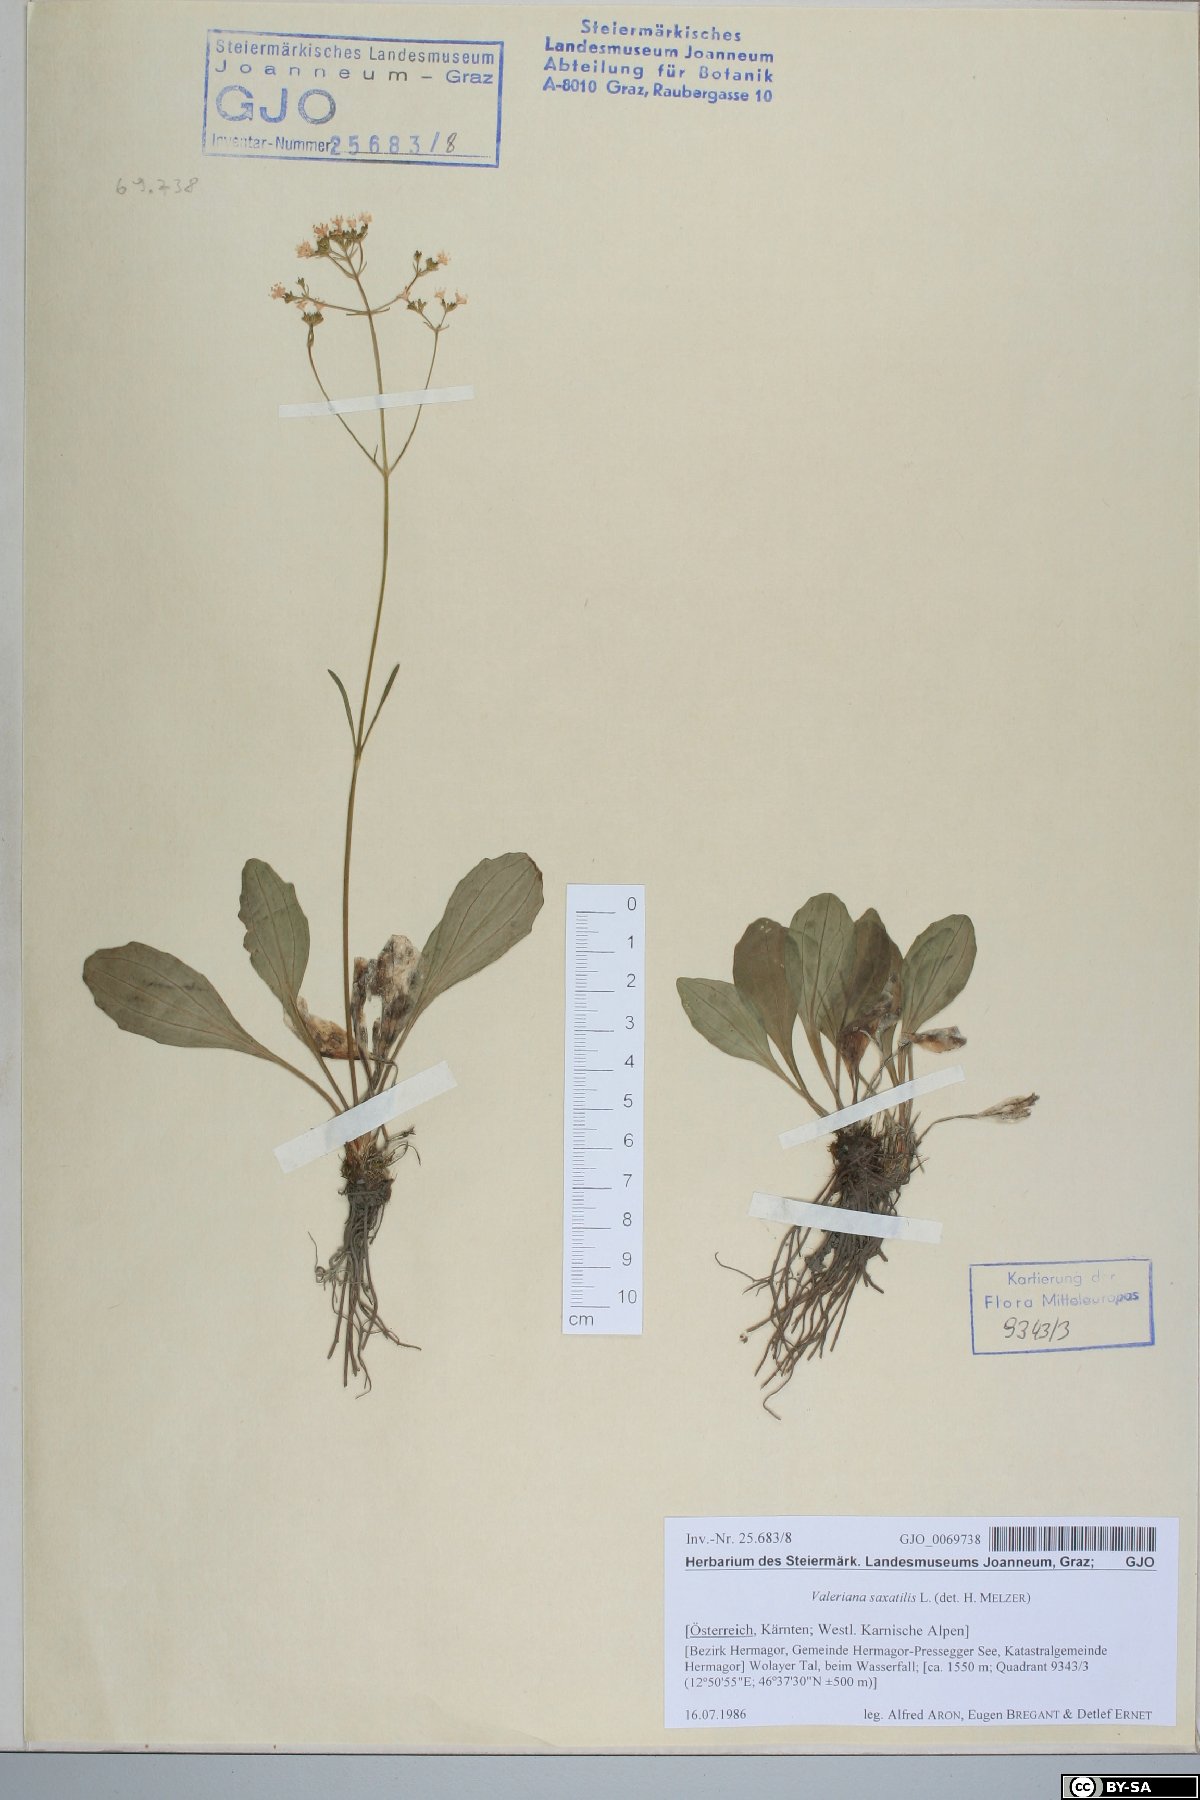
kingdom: Plantae
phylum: Tracheophyta
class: Magnoliopsida
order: Dipsacales
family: Caprifoliaceae
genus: Valeriana
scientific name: Valeriana saxatilis
